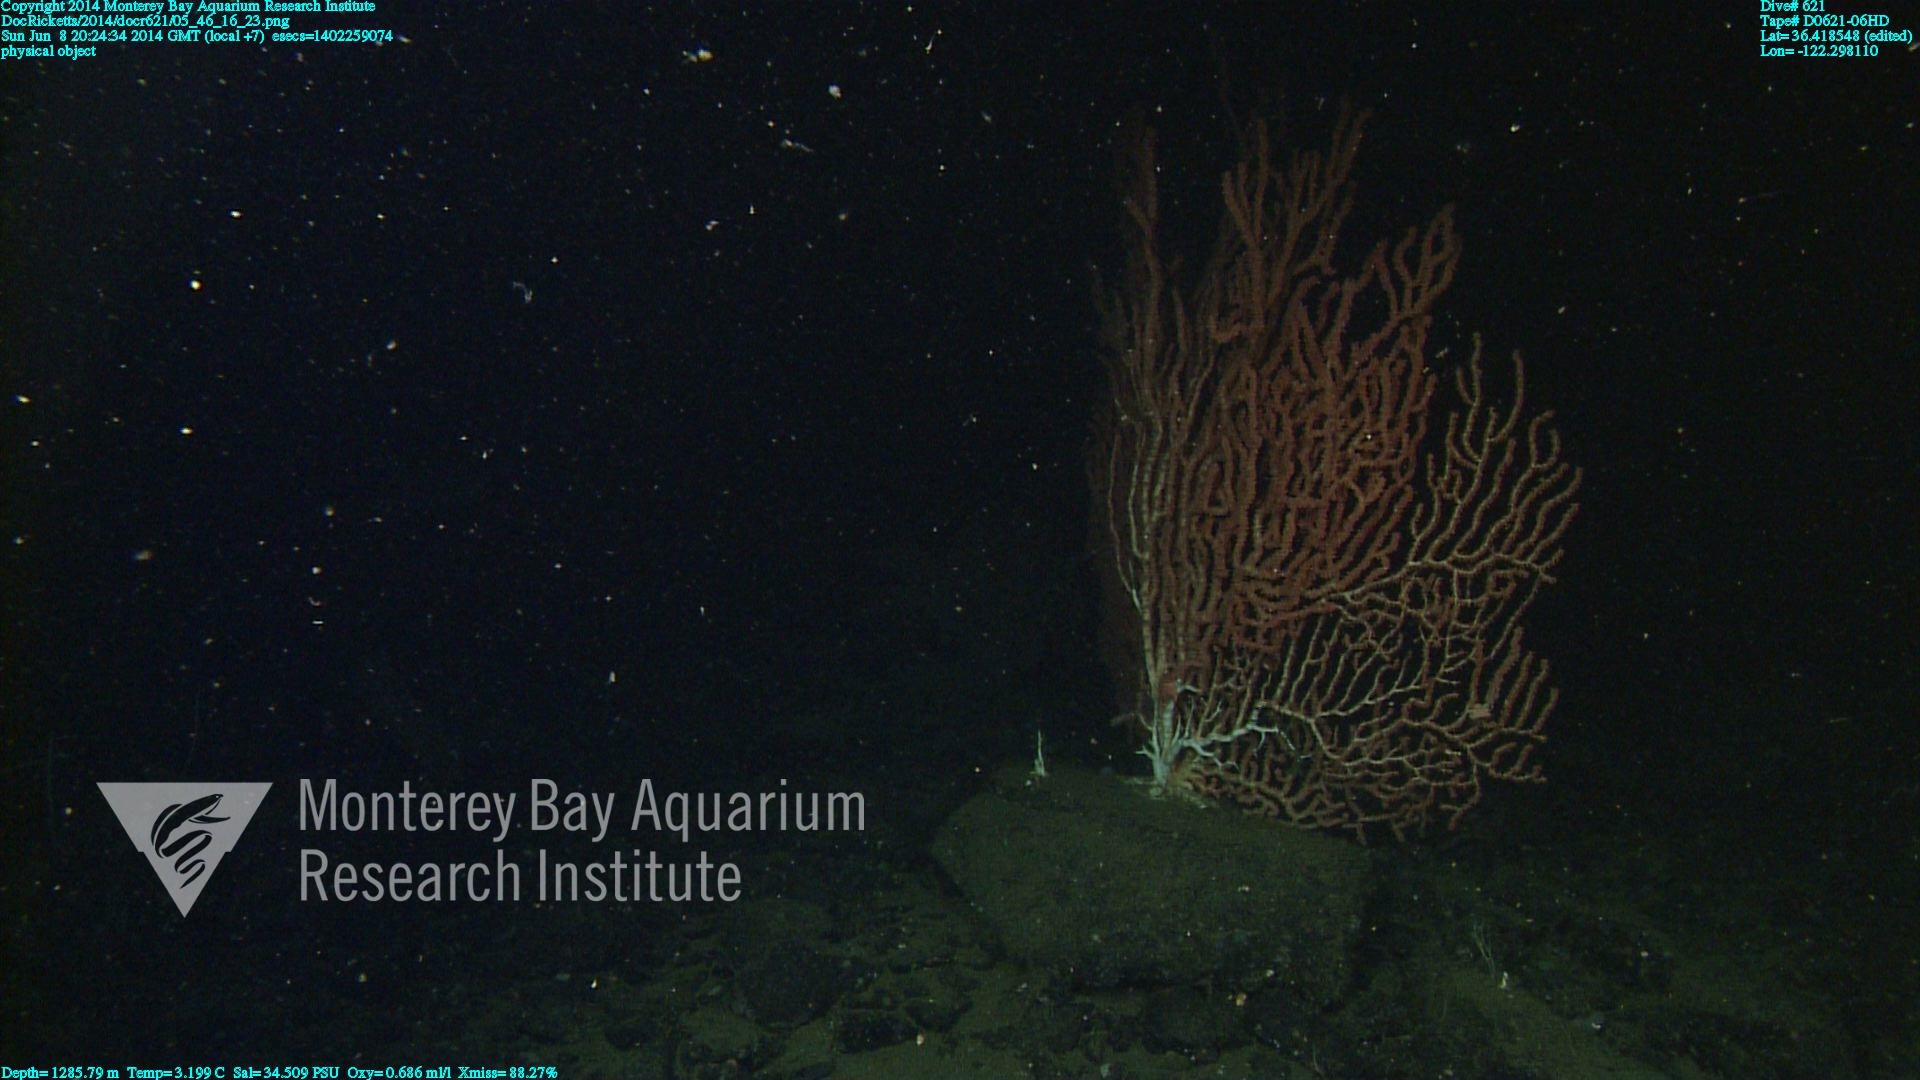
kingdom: Animalia
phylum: Cnidaria
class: Anthozoa
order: Scleralcyonacea
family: Keratoisididae
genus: Keratoisis
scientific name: Keratoisis
